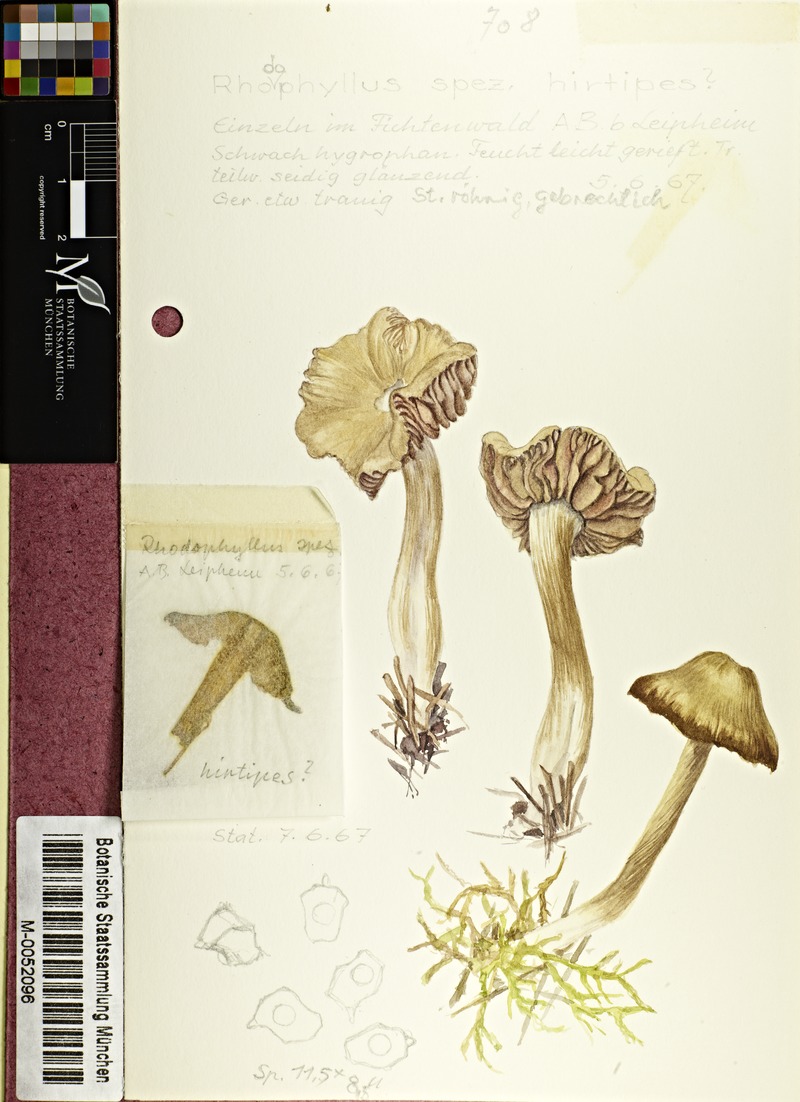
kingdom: Fungi
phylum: Basidiomycota
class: Agaricomycetes
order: Agaricales
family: Entolomataceae
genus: Entoloma
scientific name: Entoloma
